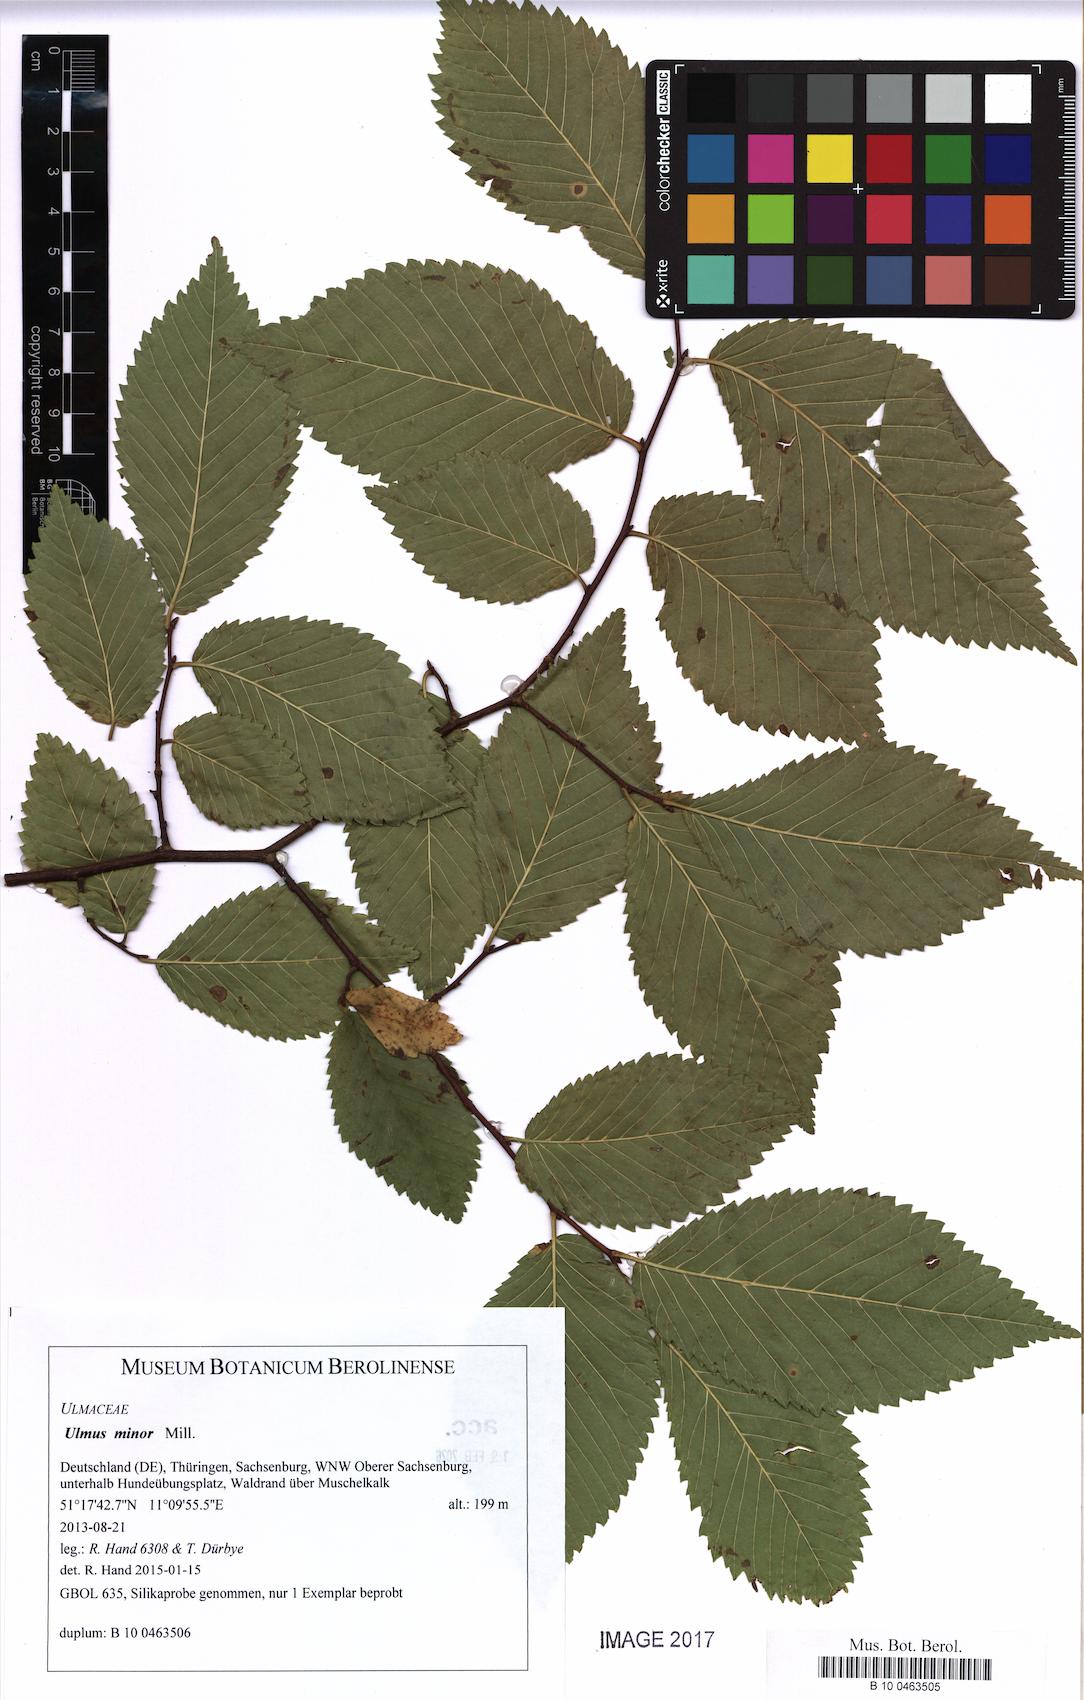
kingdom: Plantae
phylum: Tracheophyta
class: Magnoliopsida
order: Rosales
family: Ulmaceae
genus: Ulmus
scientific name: Ulmus minor
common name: Small-leaved elm
